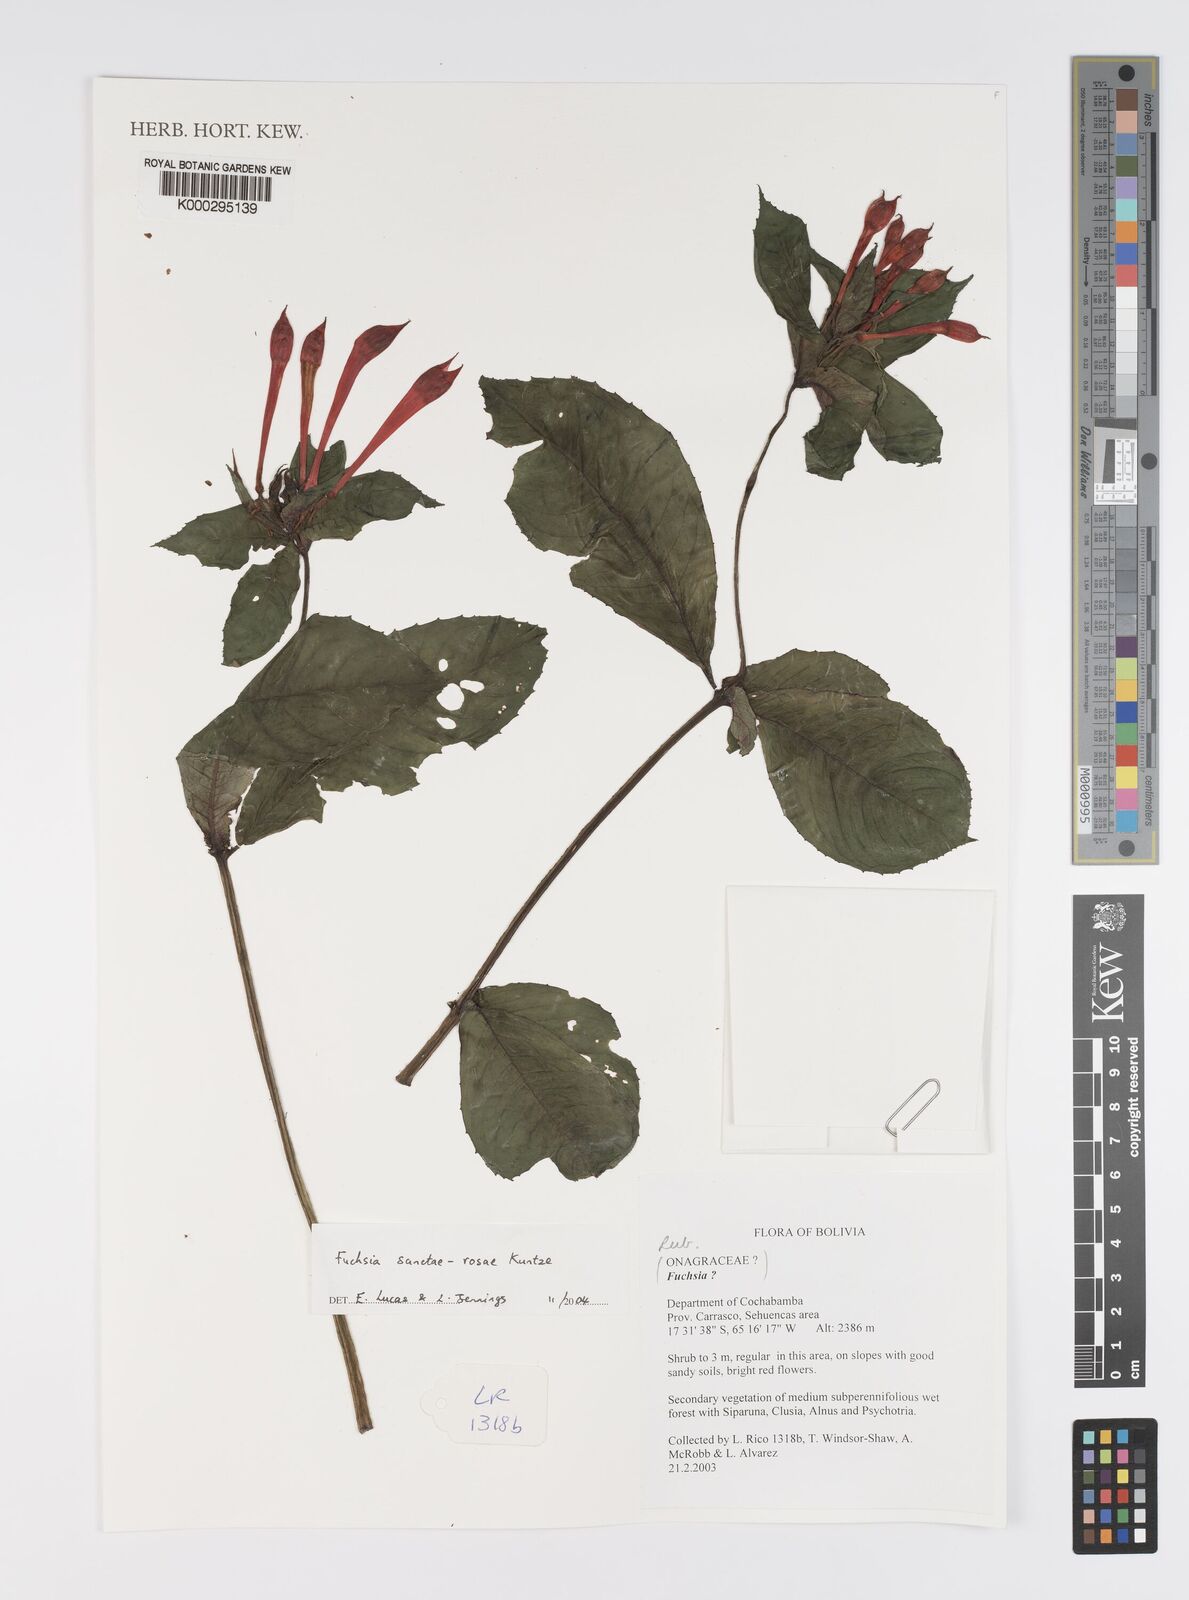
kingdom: Plantae
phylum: Tracheophyta
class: Magnoliopsida
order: Myrtales
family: Onagraceae
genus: Fuchsia
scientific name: Fuchsia sanctae-rosae
